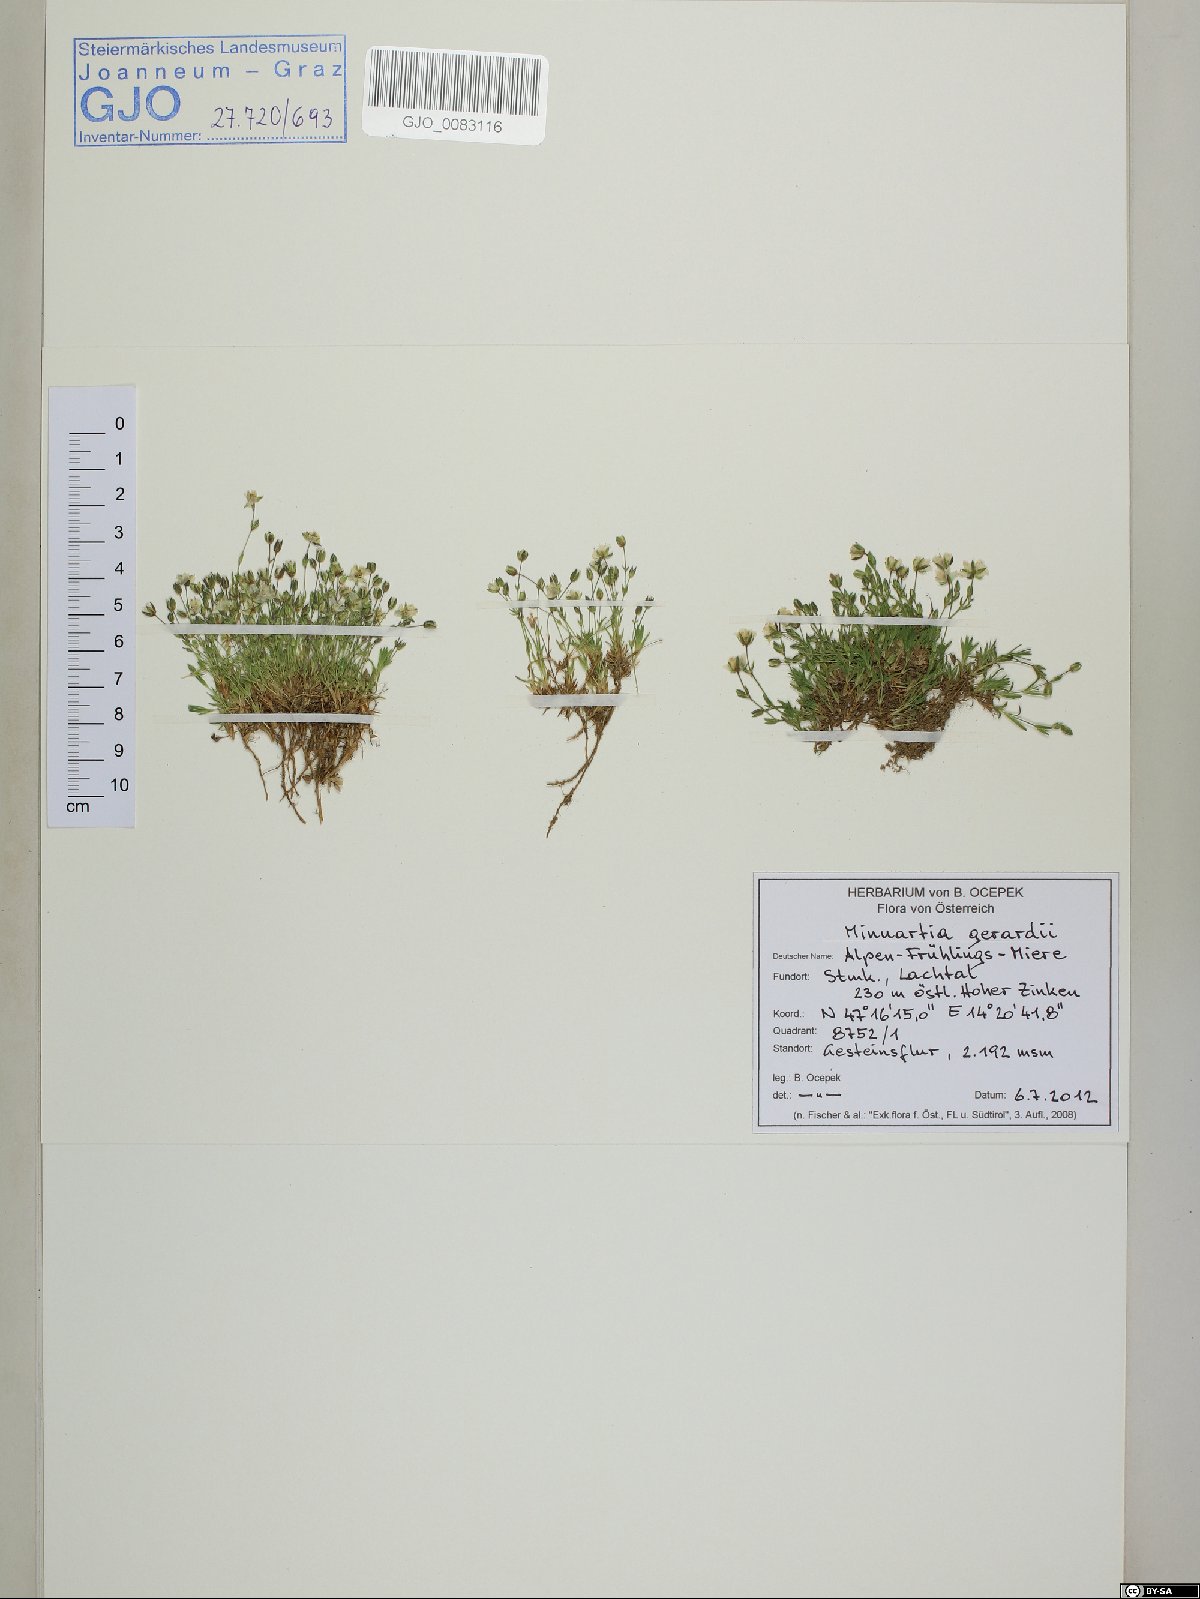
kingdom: Plantae
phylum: Tracheophyta
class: Magnoliopsida
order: Caryophyllales
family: Caryophyllaceae
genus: Sabulina
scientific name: Sabulina verna
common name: Spring sandwort
